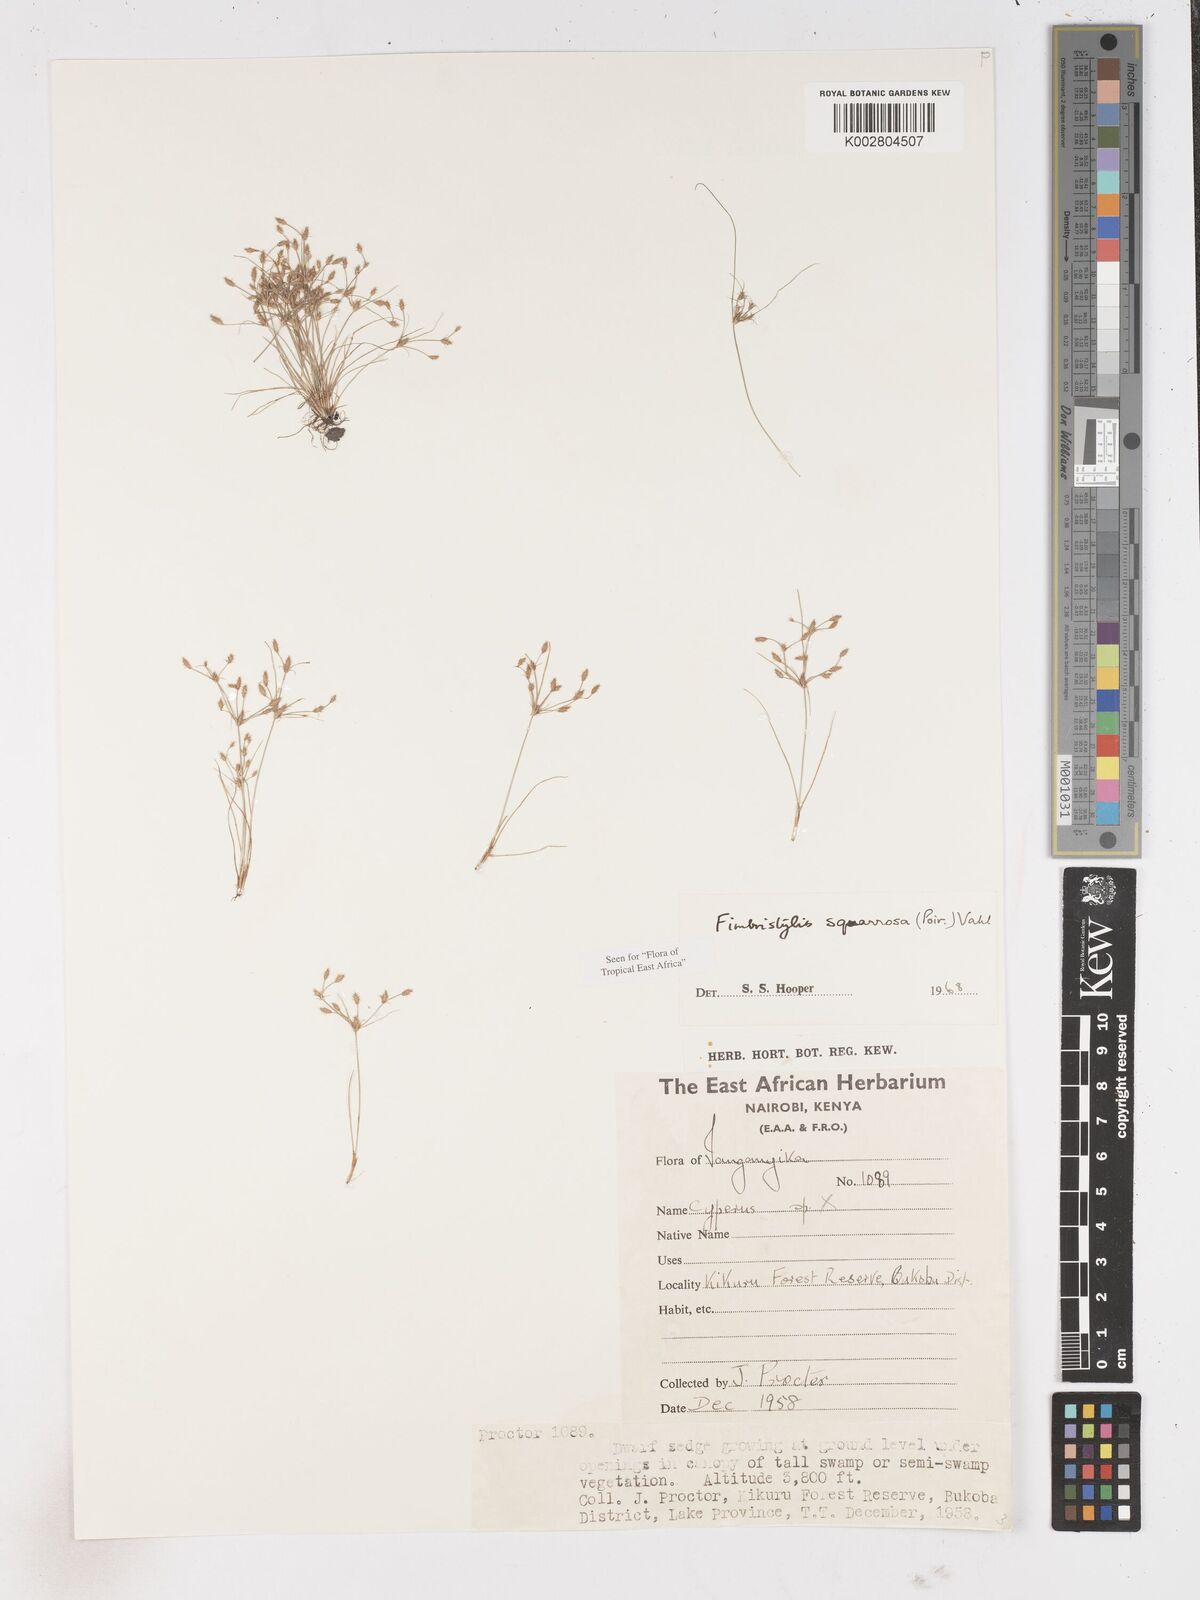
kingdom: Plantae
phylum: Tracheophyta
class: Liliopsida
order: Poales
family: Cyperaceae
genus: Fimbristylis
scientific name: Fimbristylis squarrosa
